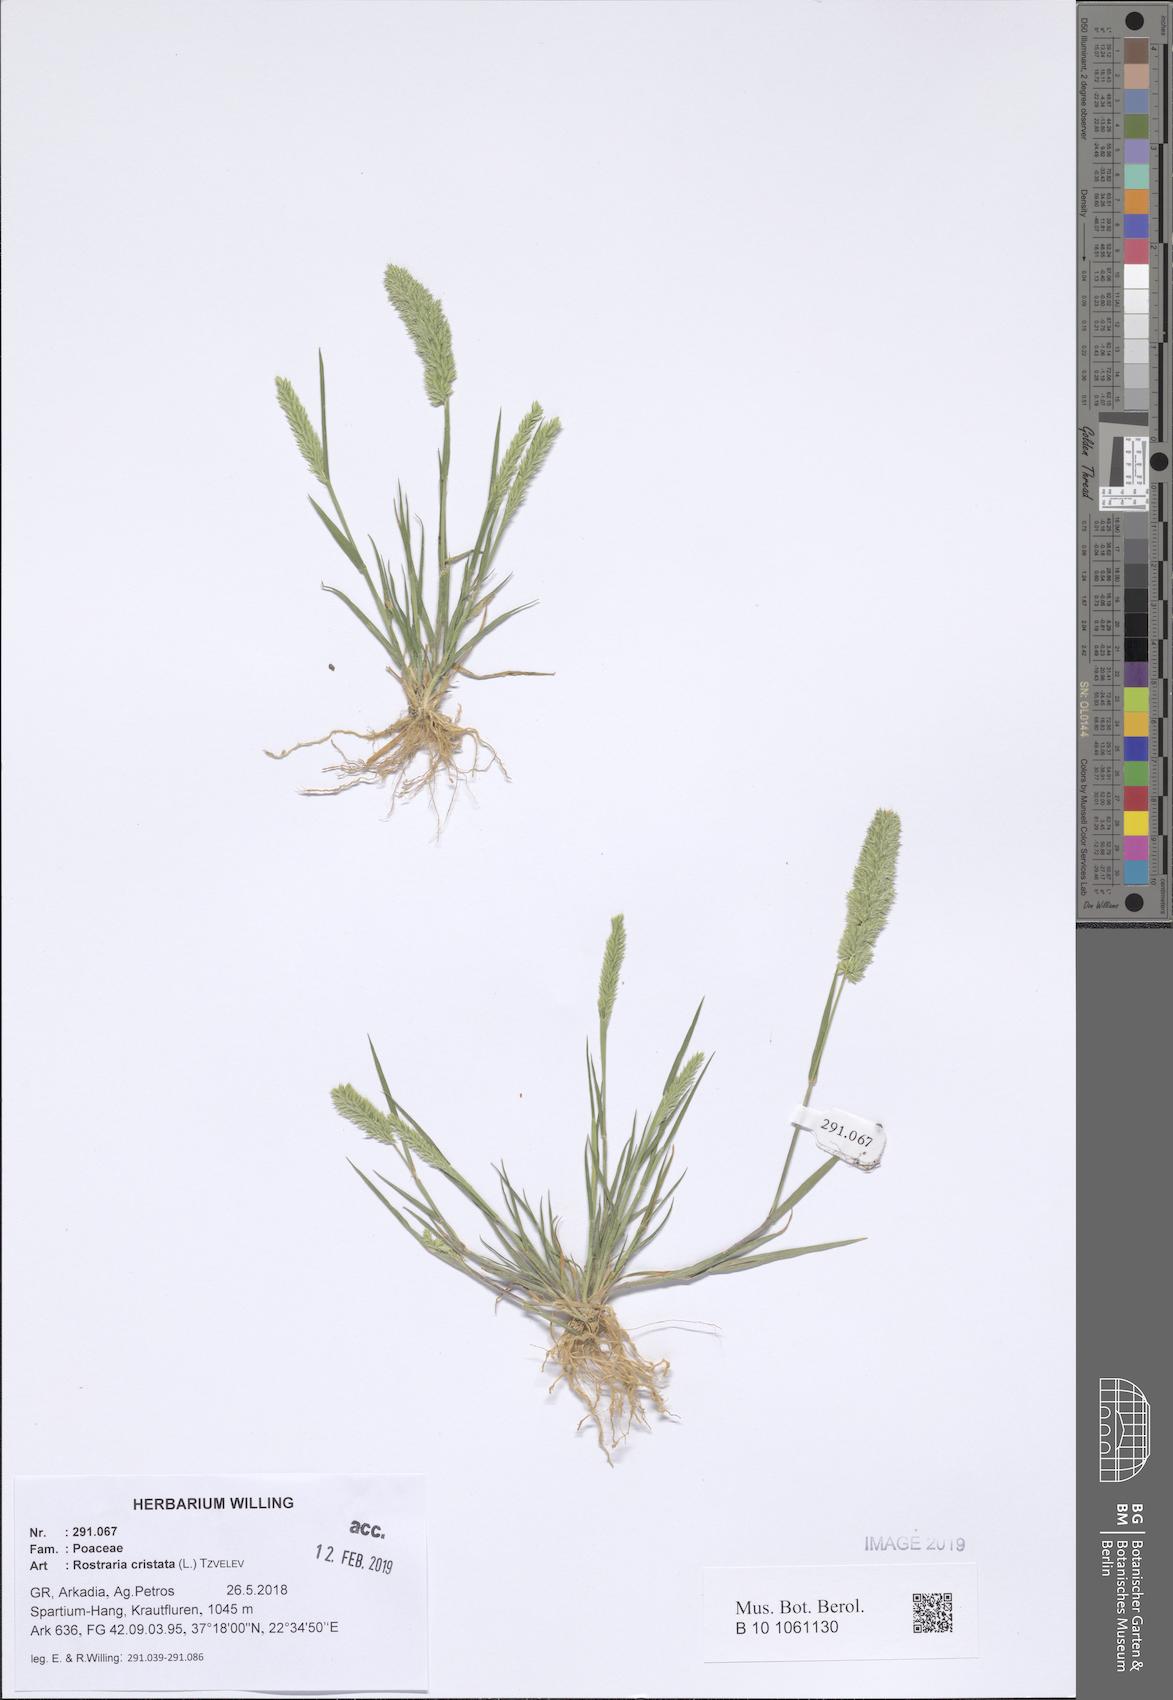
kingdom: Plantae
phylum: Tracheophyta
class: Liliopsida
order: Poales
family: Poaceae
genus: Rostraria
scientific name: Rostraria cristata
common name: Mediterranean hair-grass
